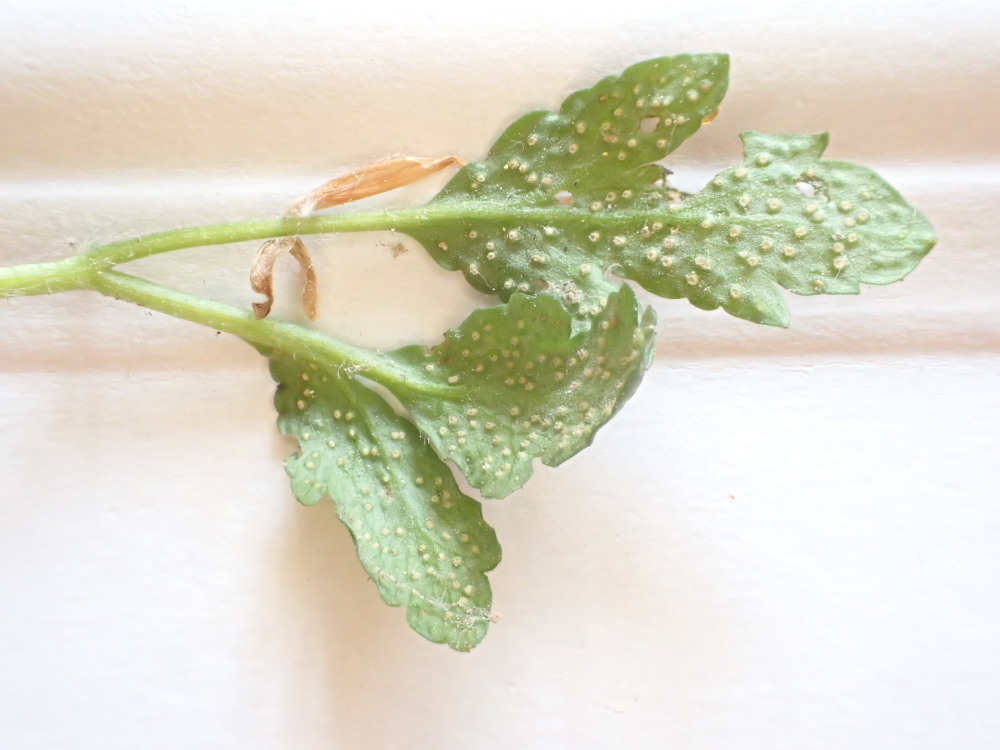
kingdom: Fungi
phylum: Basidiomycota
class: Pucciniomycetes
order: Pucciniales
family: Ochropsoraceae
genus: Ochropsora
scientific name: Ochropsora ariae
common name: anemone-okkerpletrust
